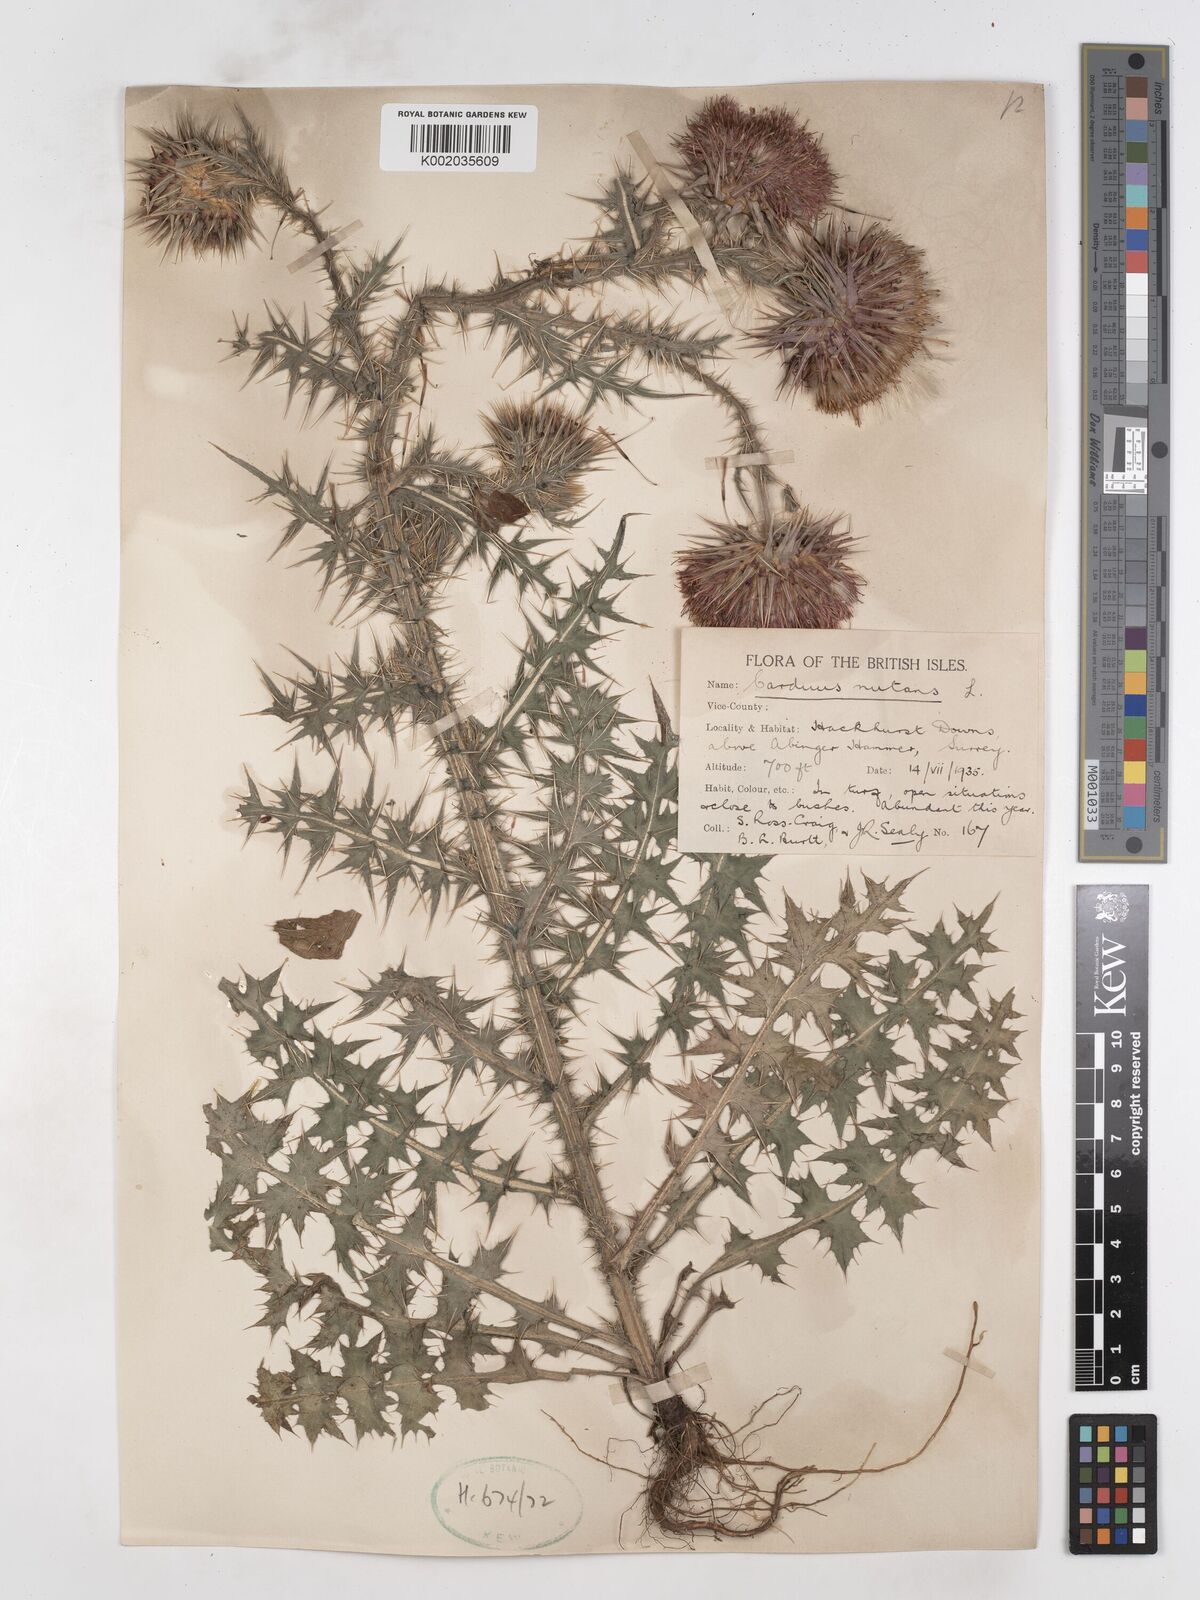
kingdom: Plantae
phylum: Tracheophyta
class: Magnoliopsida
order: Asterales
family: Asteraceae
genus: Carduus
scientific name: Carduus nutans
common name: Musk thistle
